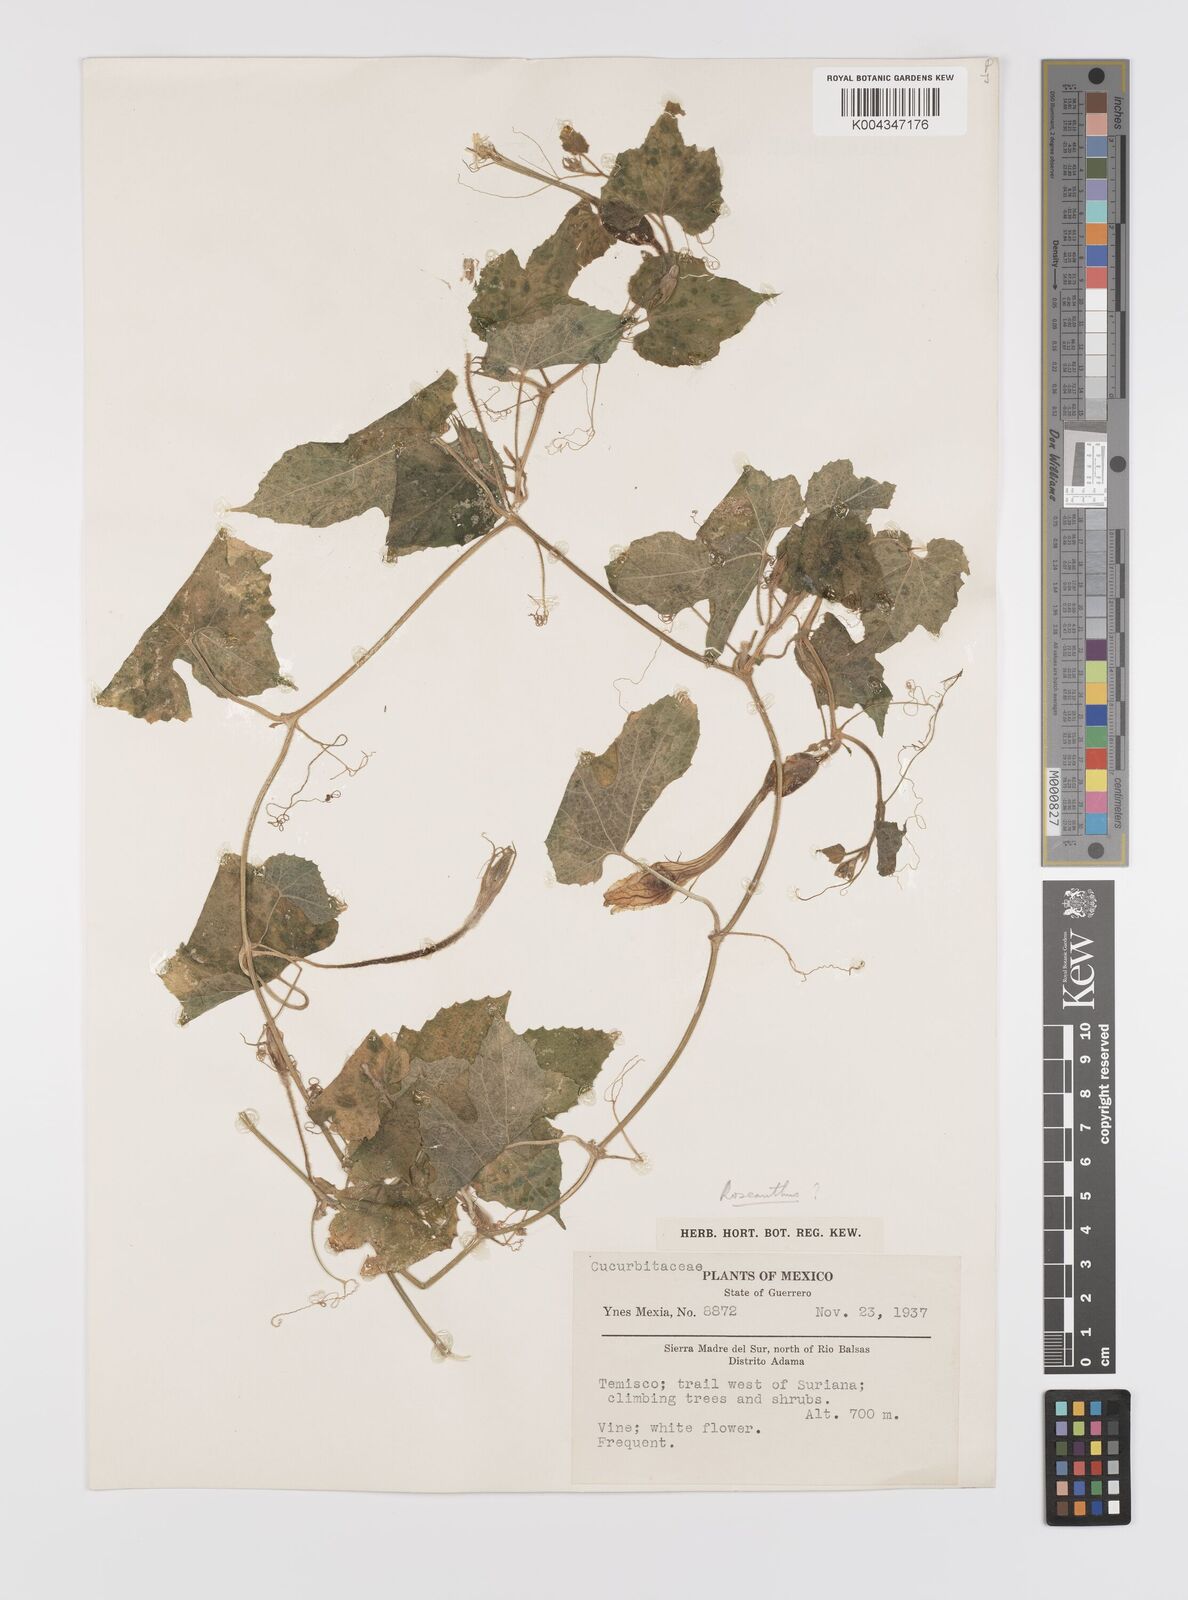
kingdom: Plantae
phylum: Tracheophyta
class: Magnoliopsida
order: Cucurbitales
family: Cucurbitaceae
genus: Polyclathra
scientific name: Polyclathra
